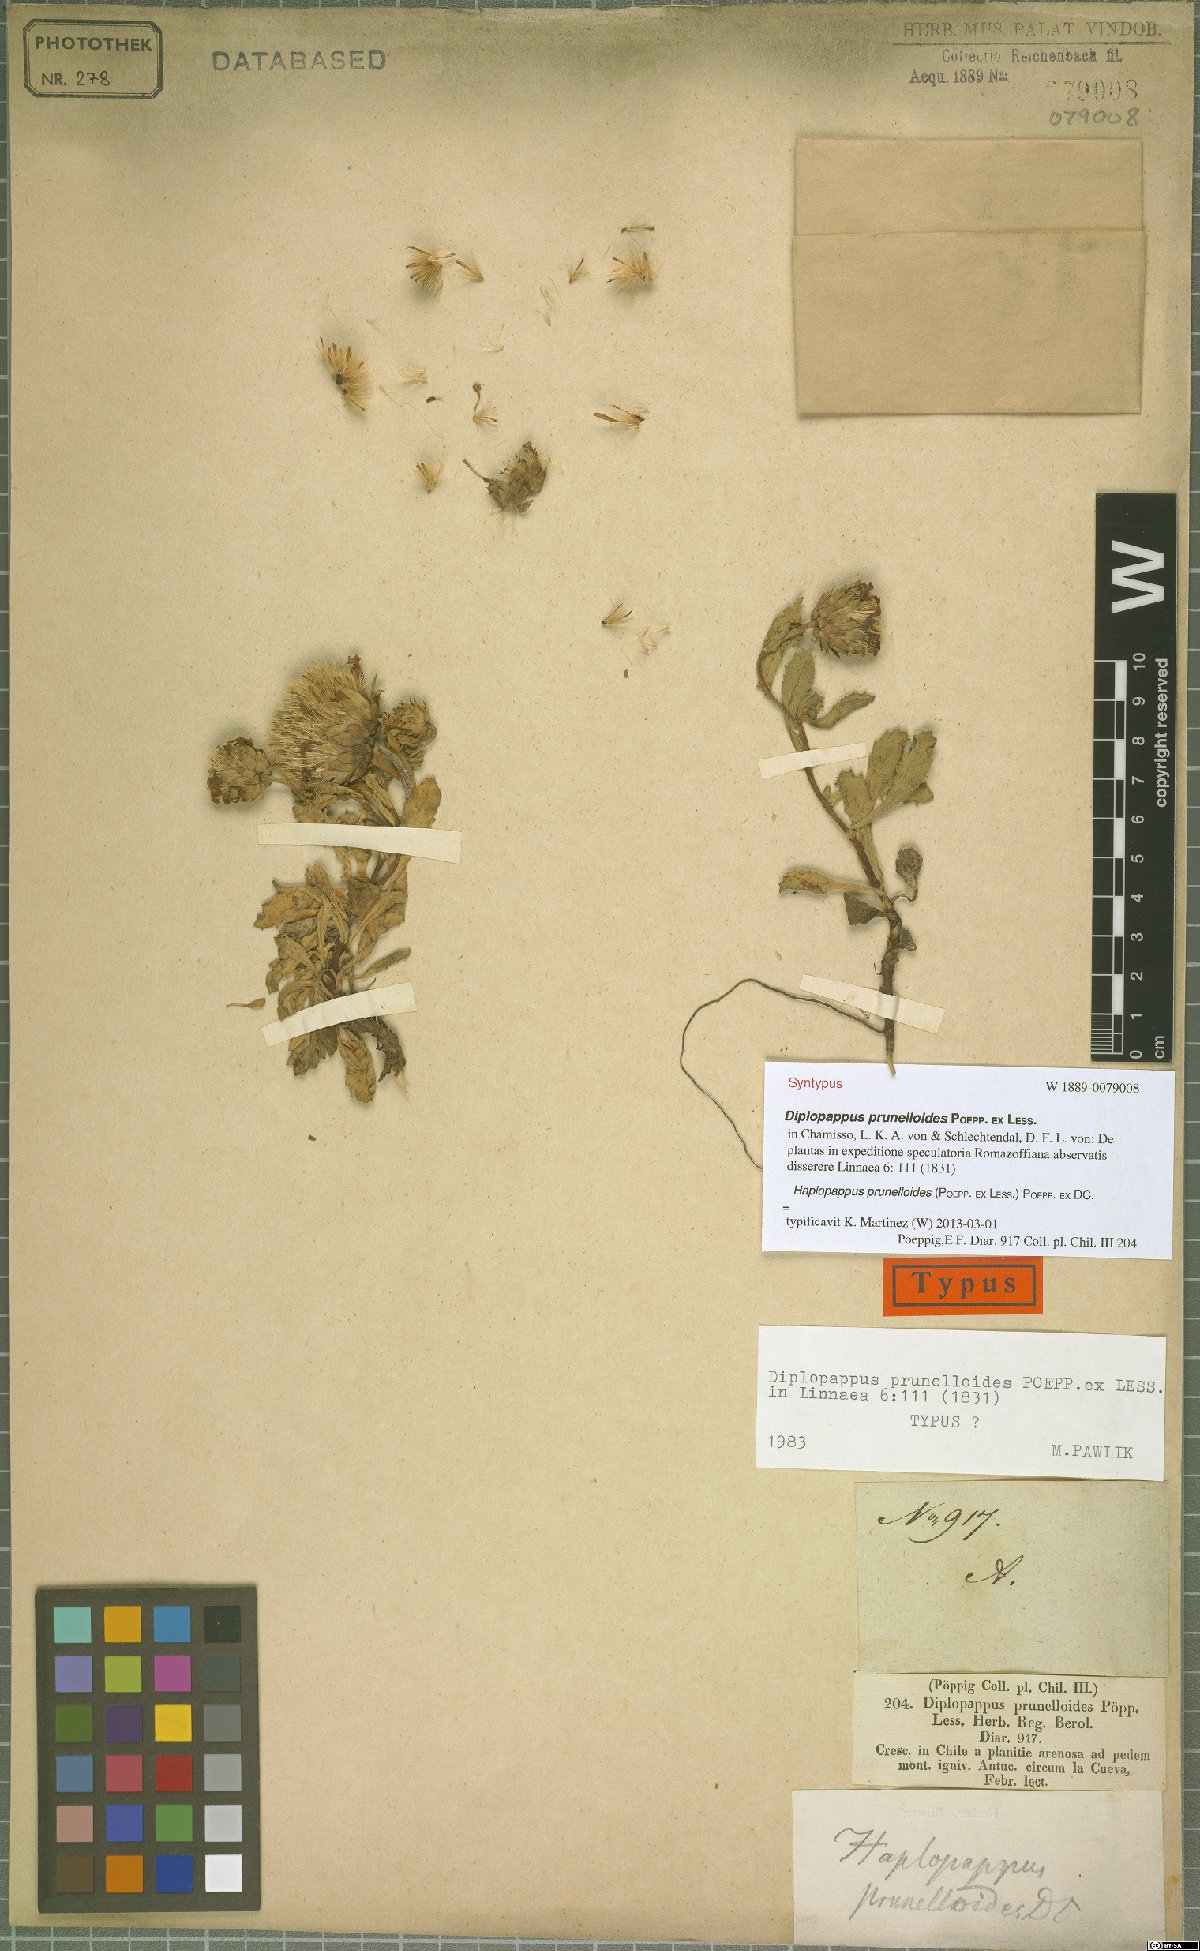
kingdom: Plantae
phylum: Tracheophyta
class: Magnoliopsida
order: Asterales
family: Asteraceae
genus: Notopappus
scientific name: Notopappus prunelloides
